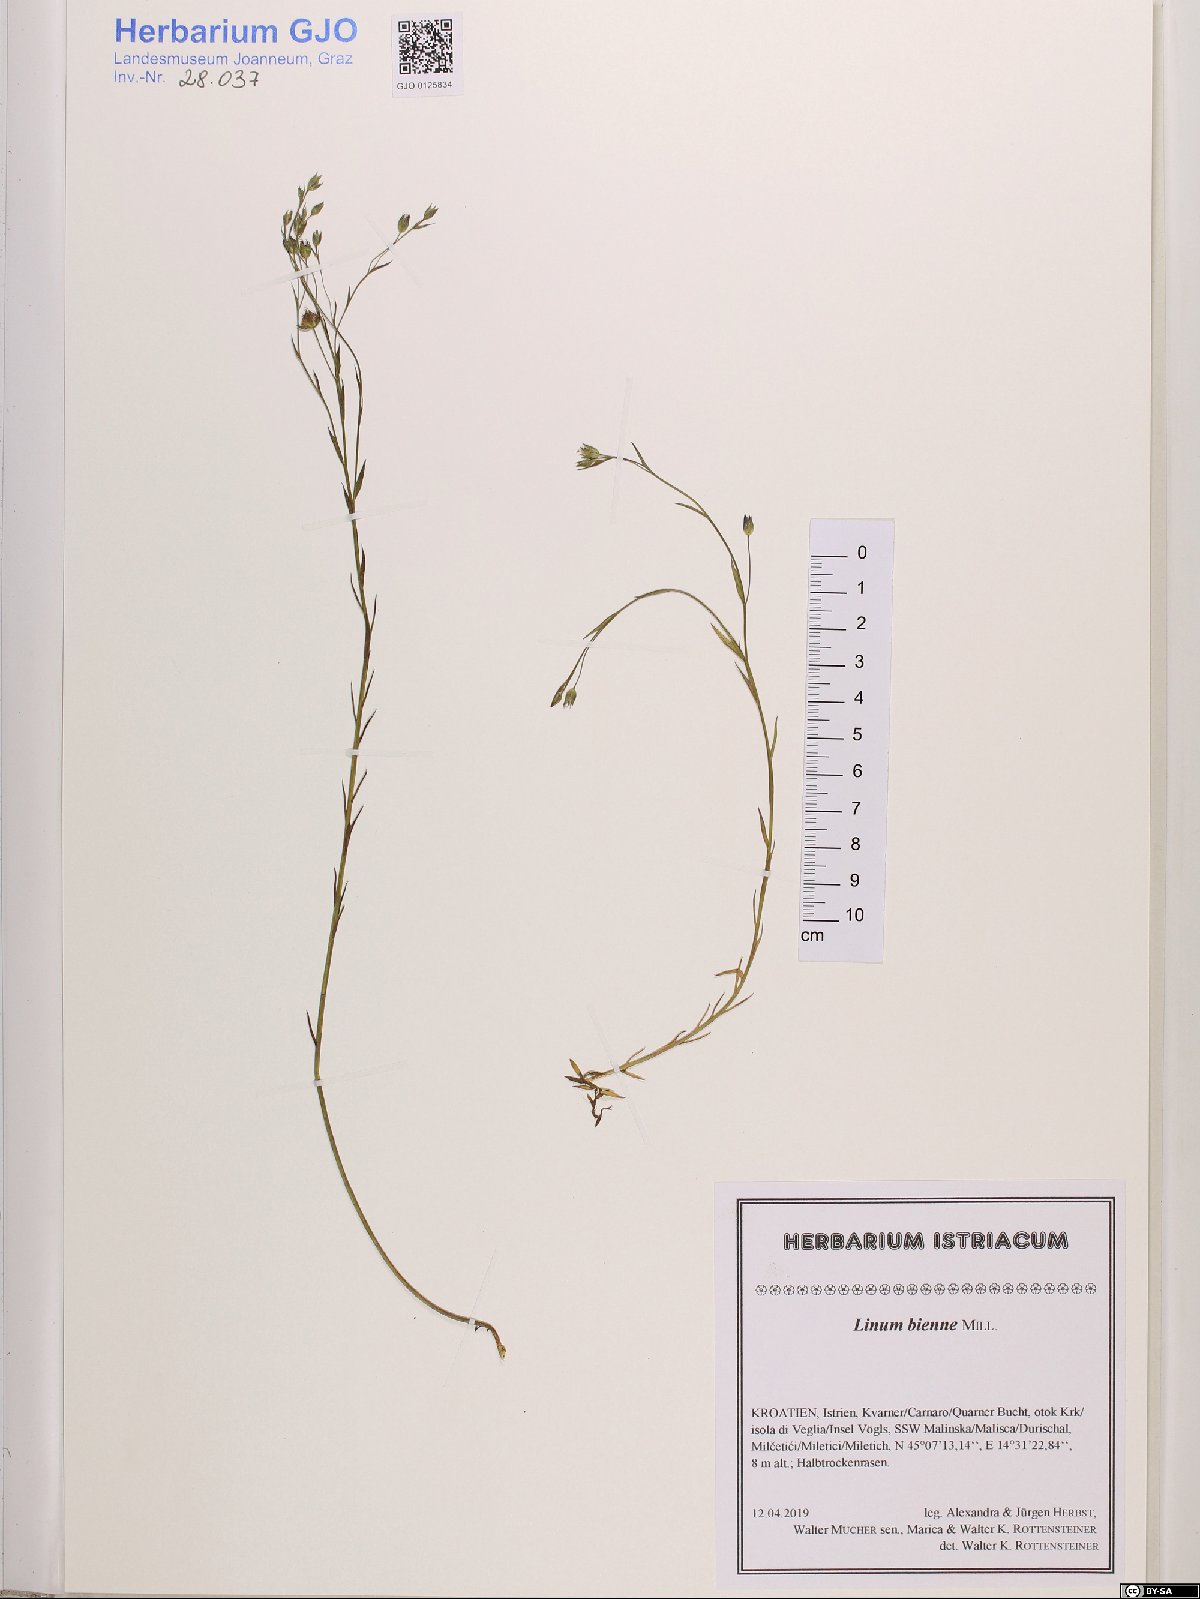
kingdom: Plantae
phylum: Tracheophyta
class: Magnoliopsida
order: Malpighiales
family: Linaceae
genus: Linum
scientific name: Linum bienne
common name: Pale flax
